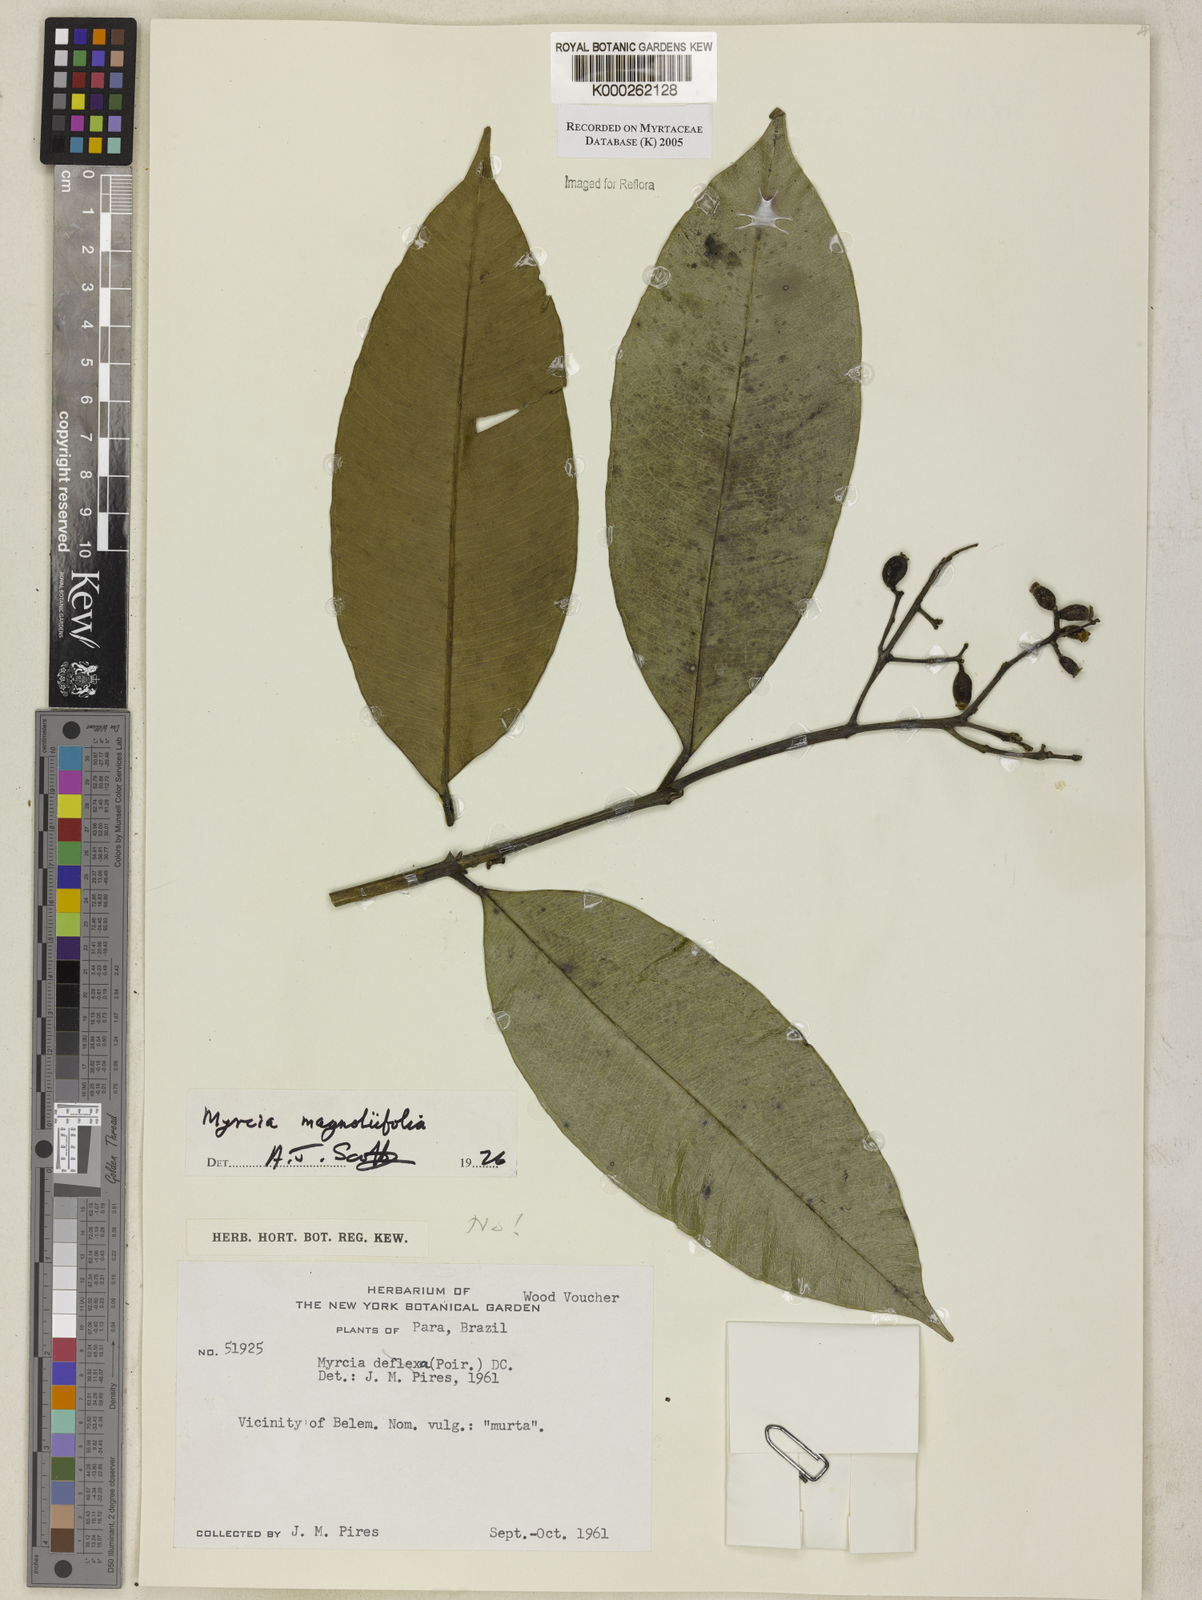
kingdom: Plantae
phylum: Tracheophyta
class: Magnoliopsida
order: Myrtales
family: Myrtaceae
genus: Myrcia
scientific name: Myrcia splendens
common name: Surinam cherry
